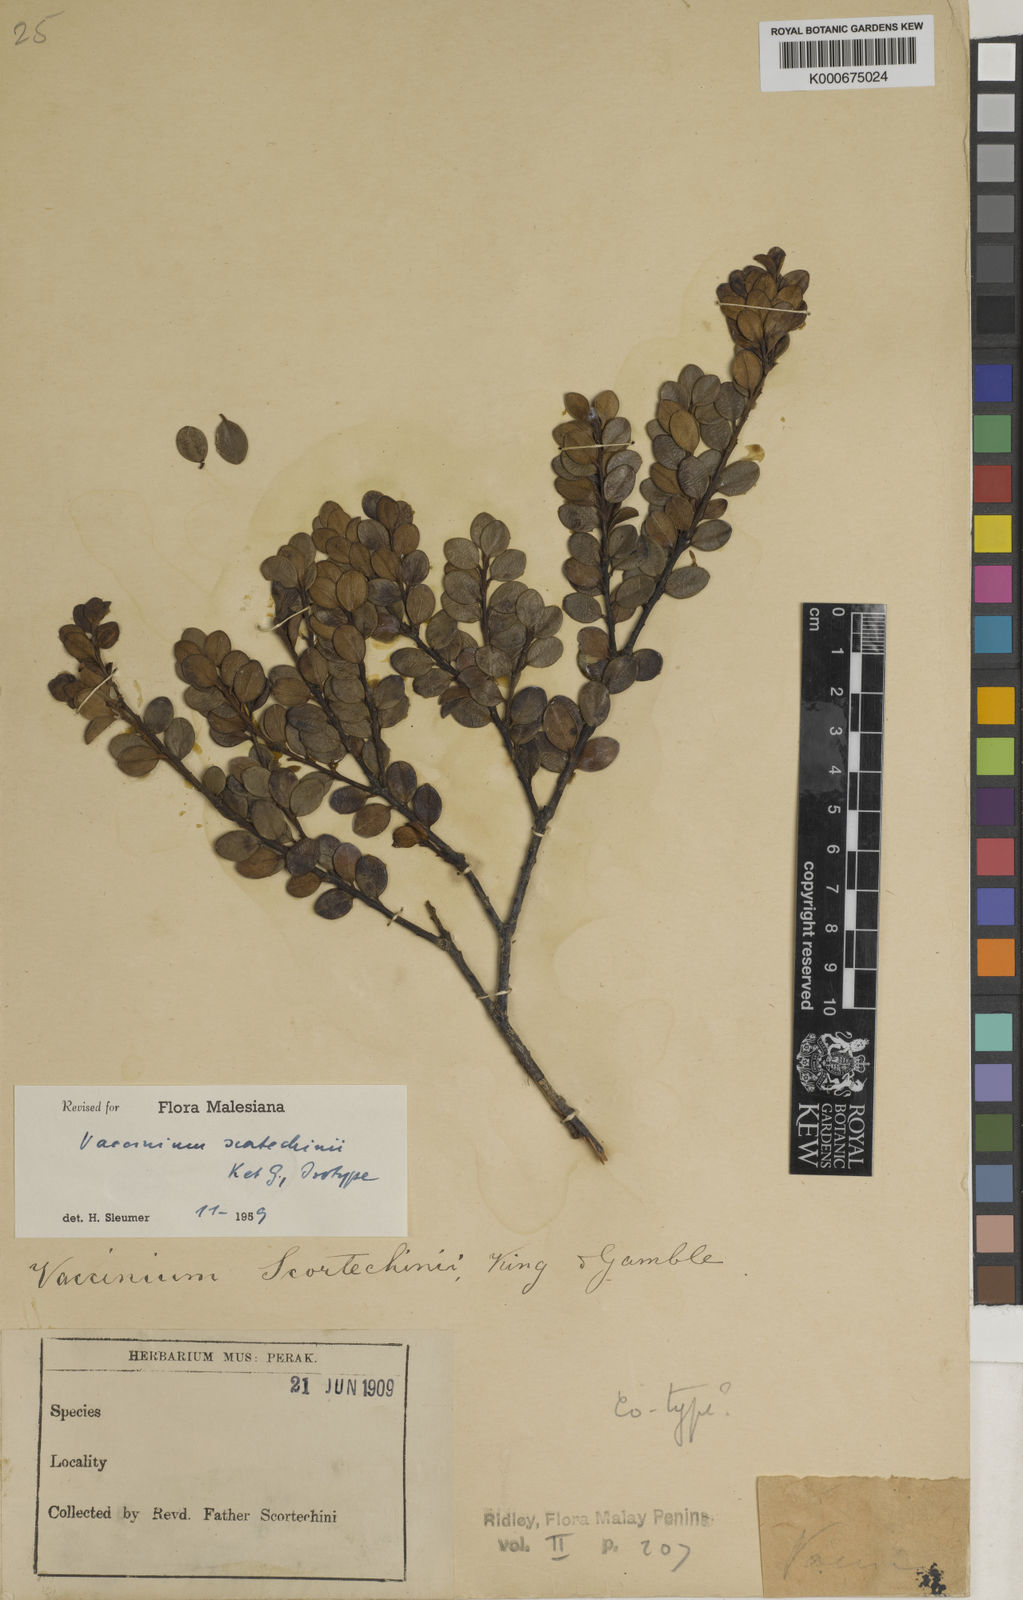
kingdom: Plantae
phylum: Tracheophyta
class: Magnoliopsida
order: Ericales
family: Ericaceae
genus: Vaccinium
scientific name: Vaccinium scortechinii
